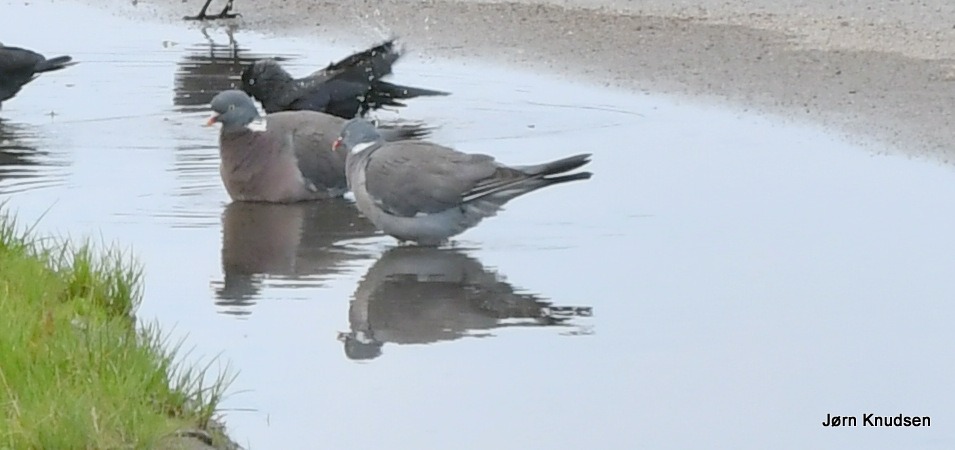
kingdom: Animalia
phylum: Chordata
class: Aves
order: Columbiformes
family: Columbidae
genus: Columba
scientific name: Columba palumbus
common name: Ringdue
